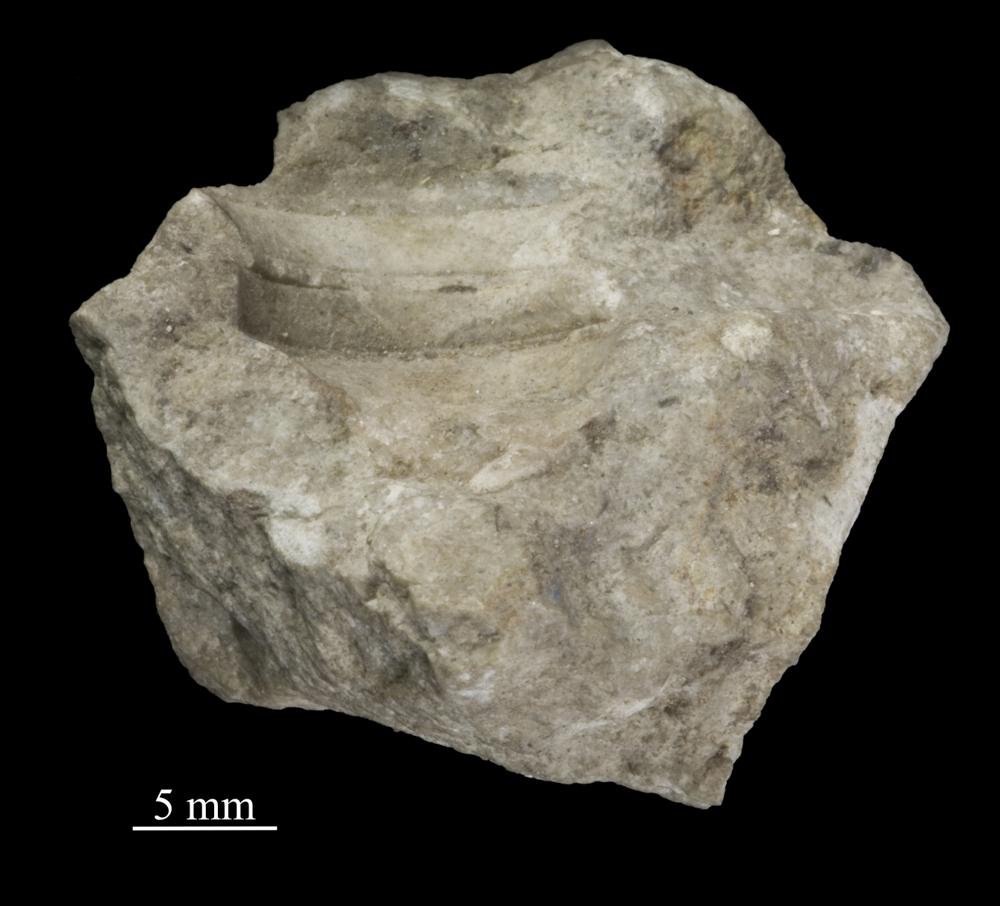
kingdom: Animalia
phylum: Mollusca
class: Gastropoda
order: Pleurotomariida
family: Phanerotrematidae
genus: Brachytomaria
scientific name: Brachytomaria Pleurotomaria baltica
